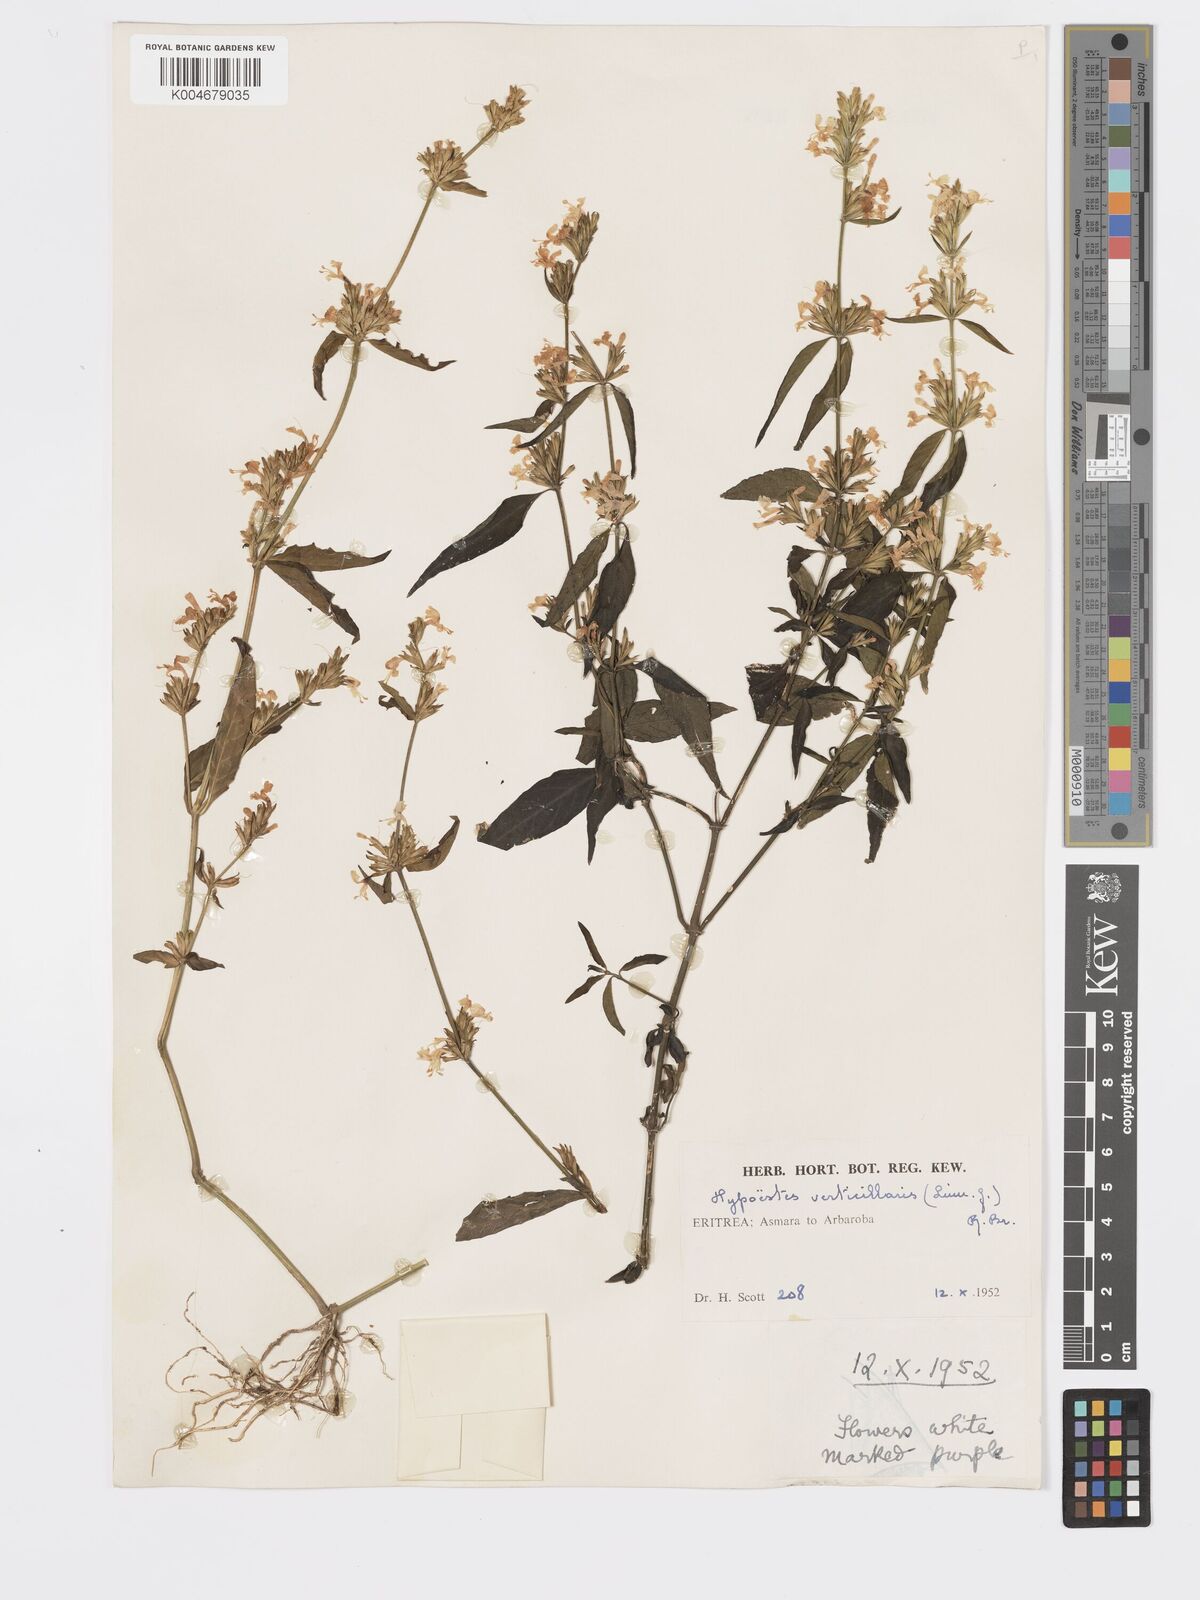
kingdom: Plantae
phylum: Tracheophyta
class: Magnoliopsida
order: Lamiales
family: Acanthaceae
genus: Hypoestes
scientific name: Hypoestes forskaolii
